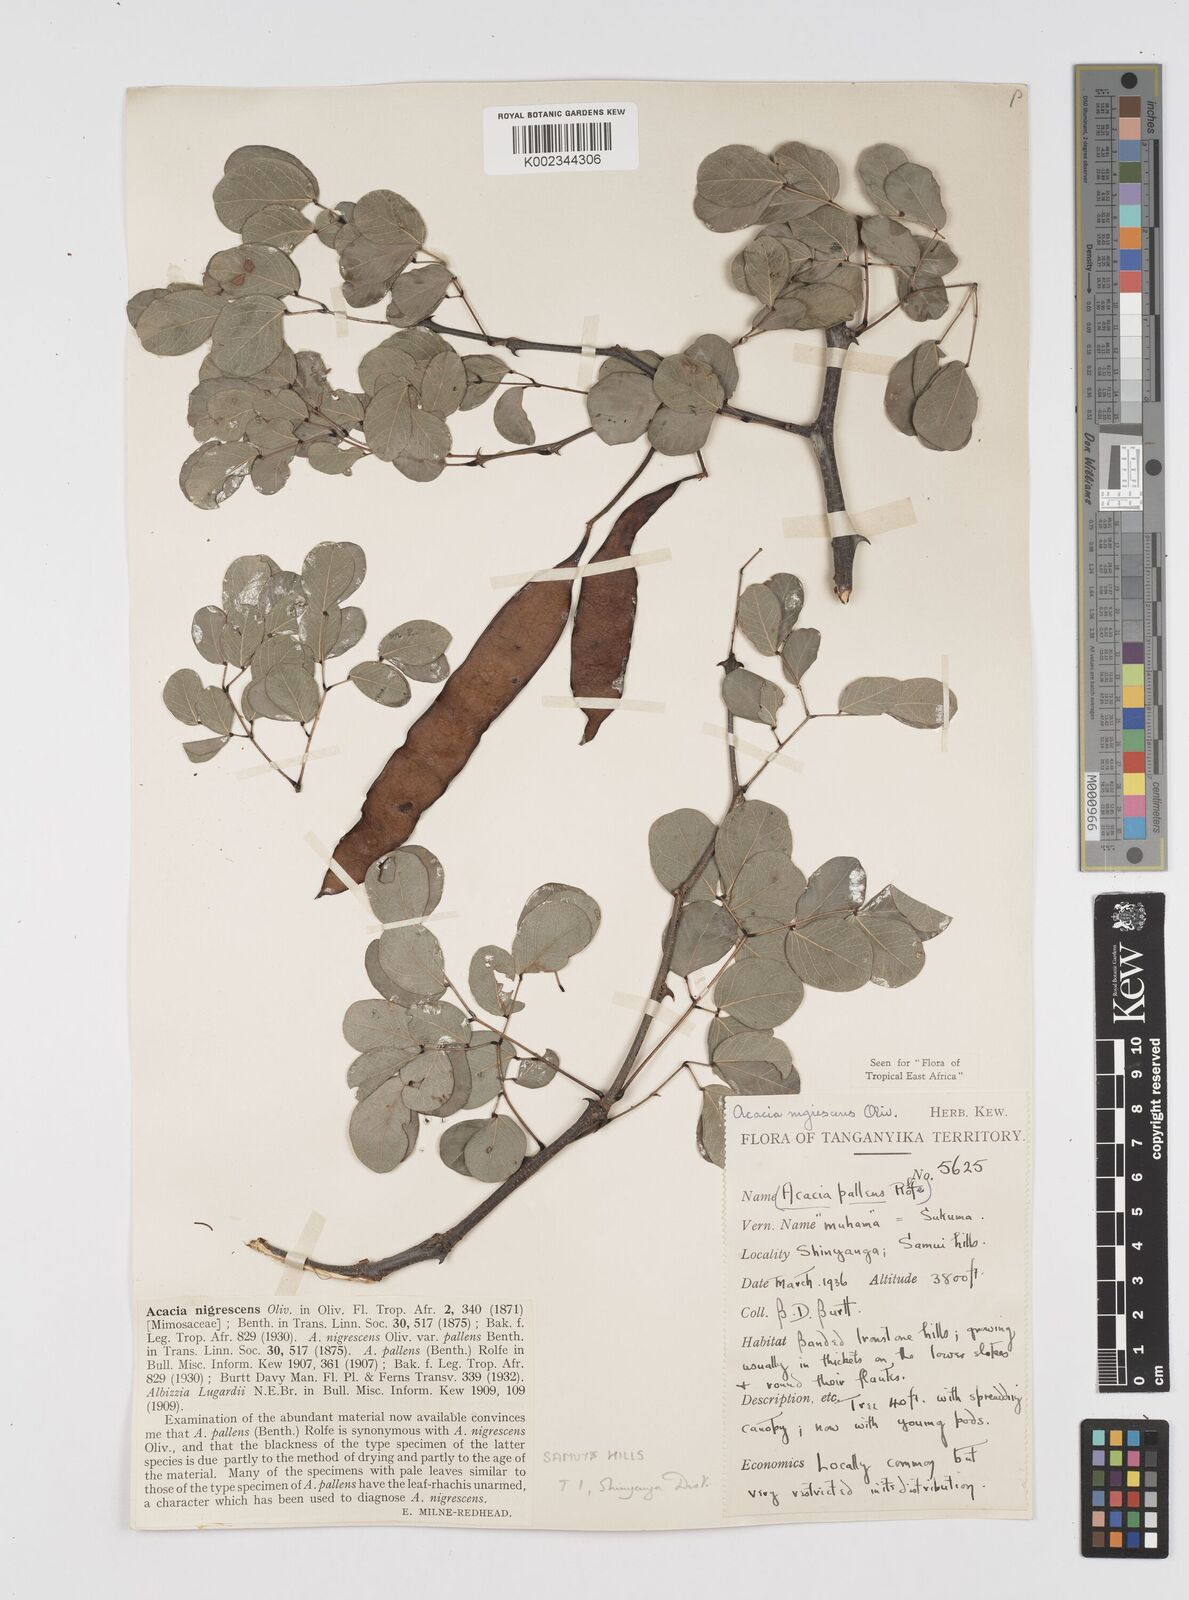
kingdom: Plantae
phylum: Tracheophyta
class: Magnoliopsida
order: Fabales
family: Fabaceae
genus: Senegalia
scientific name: Senegalia nigrescens
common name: Knobthorn
